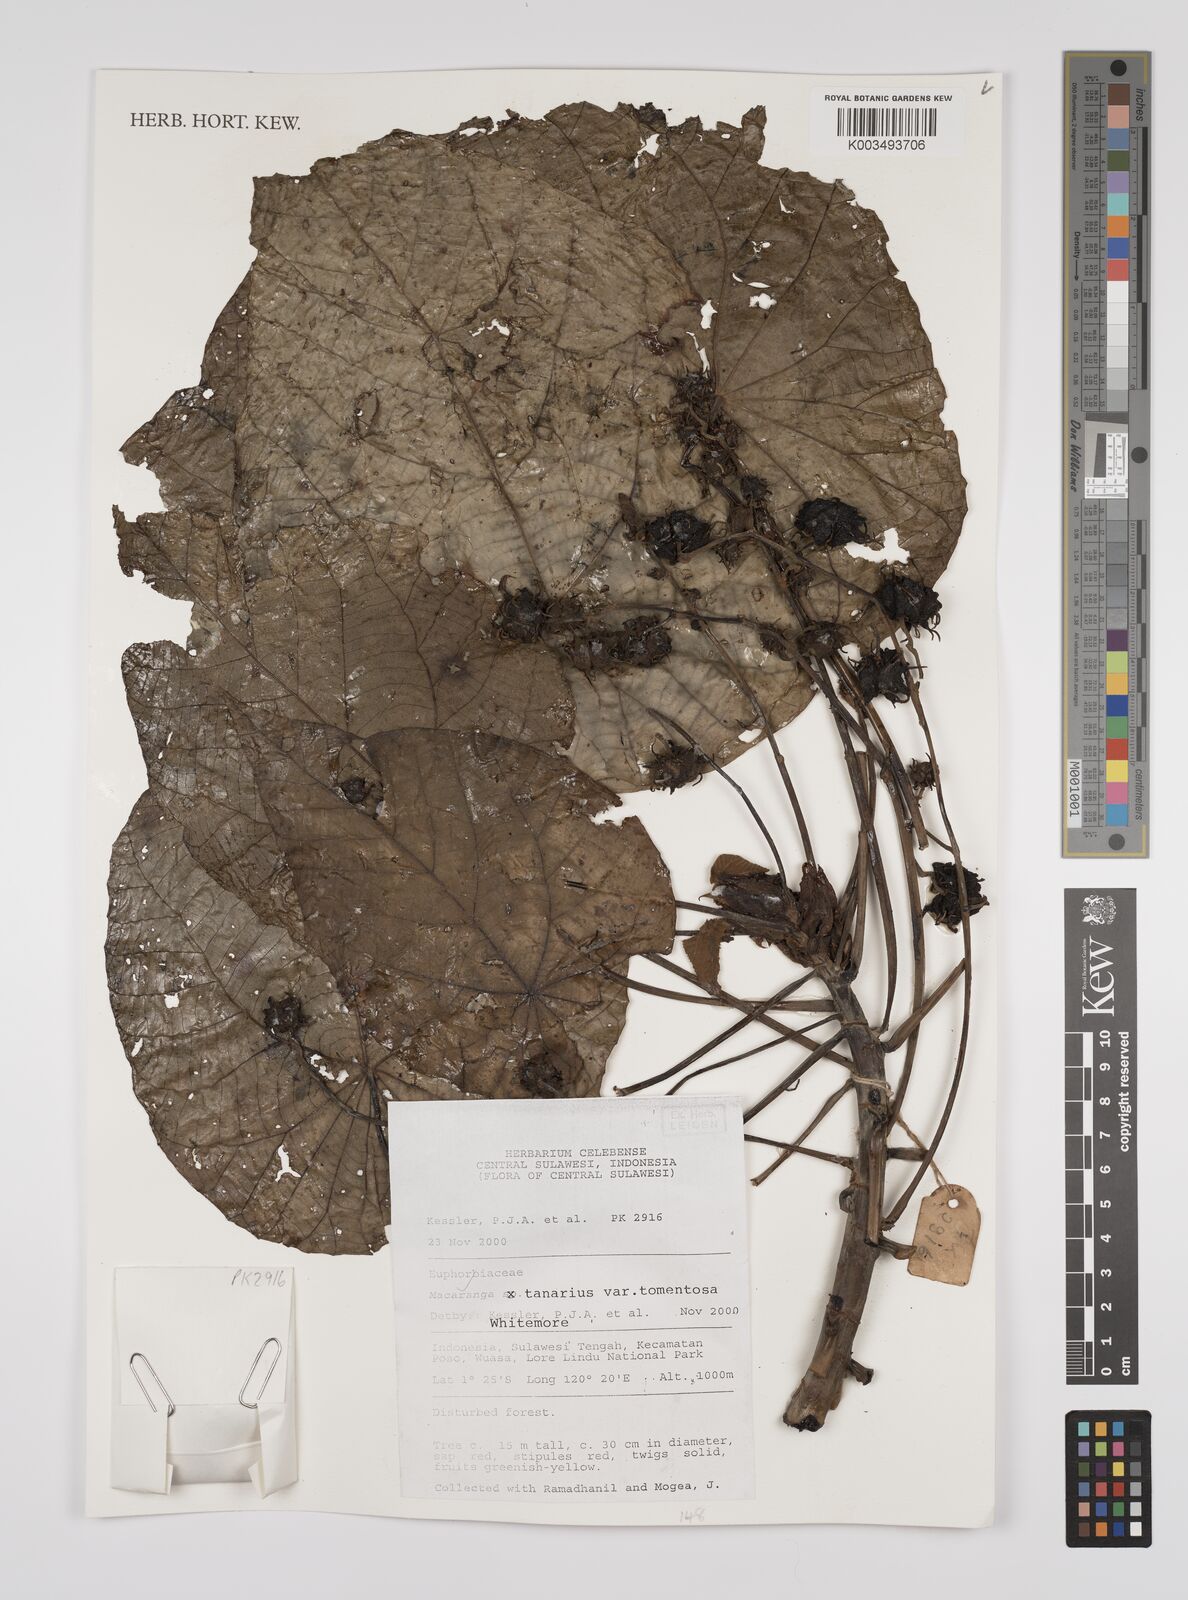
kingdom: Plantae
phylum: Tracheophyta
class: Magnoliopsida
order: Malpighiales
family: Euphorbiaceae
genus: Macaranga
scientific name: Macaranga tanarius
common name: Parasol leaf tree
